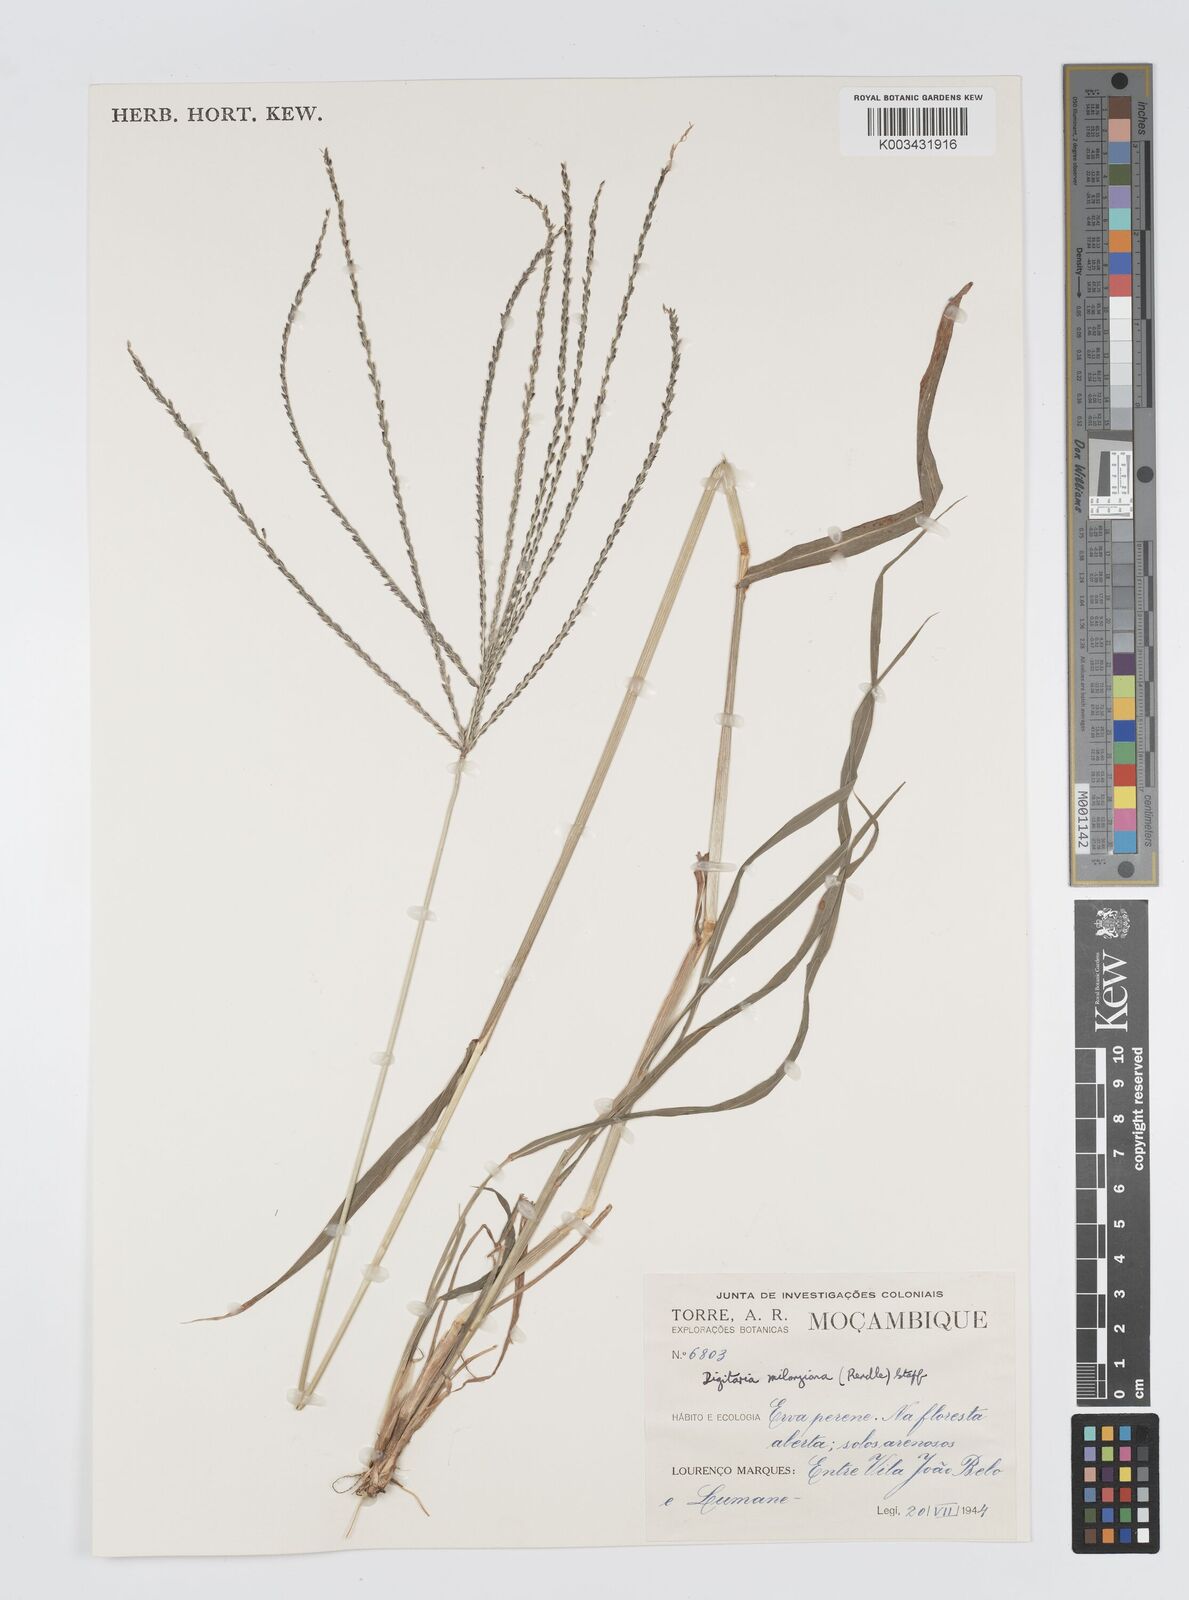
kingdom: Plantae
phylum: Tracheophyta
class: Liliopsida
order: Poales
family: Poaceae
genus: Digitaria
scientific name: Digitaria milanjiana
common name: Madagascar crabgrass
